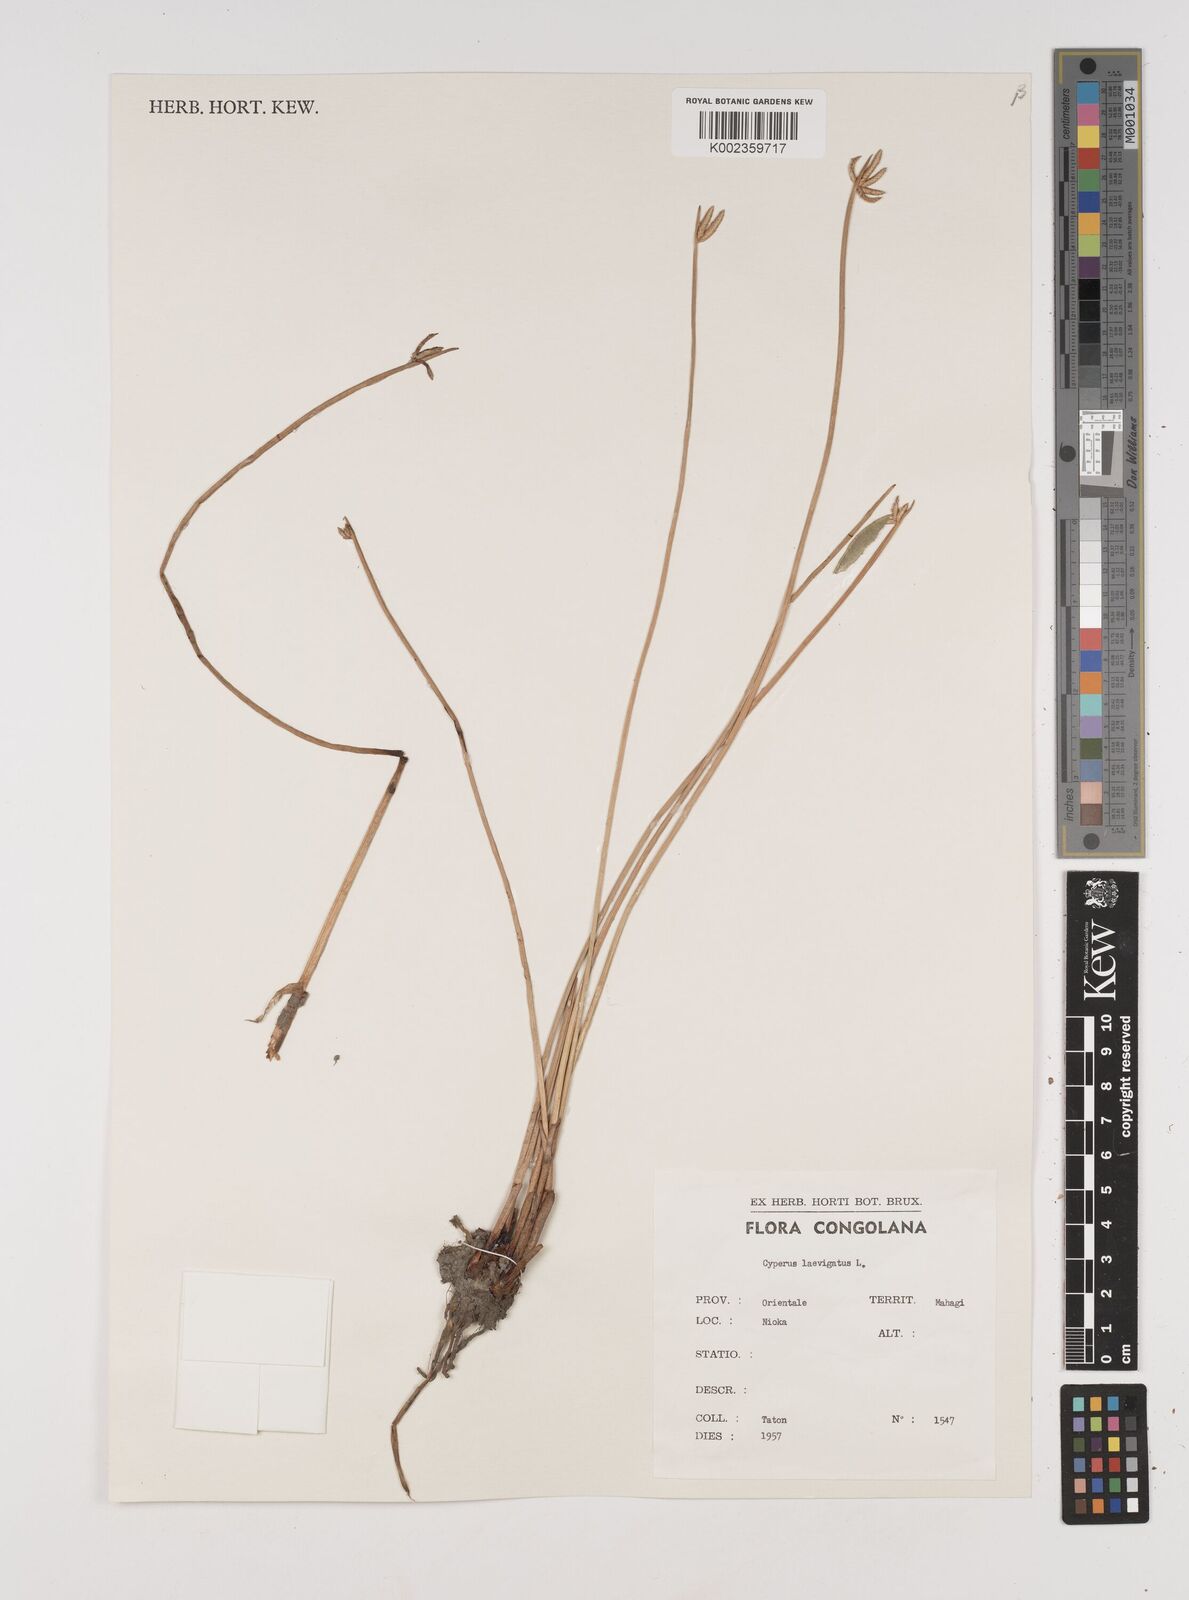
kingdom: Plantae
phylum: Tracheophyta
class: Liliopsida
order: Poales
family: Cyperaceae
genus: Cyperus
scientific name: Cyperus laevigatus
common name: Smooth flat sedge
